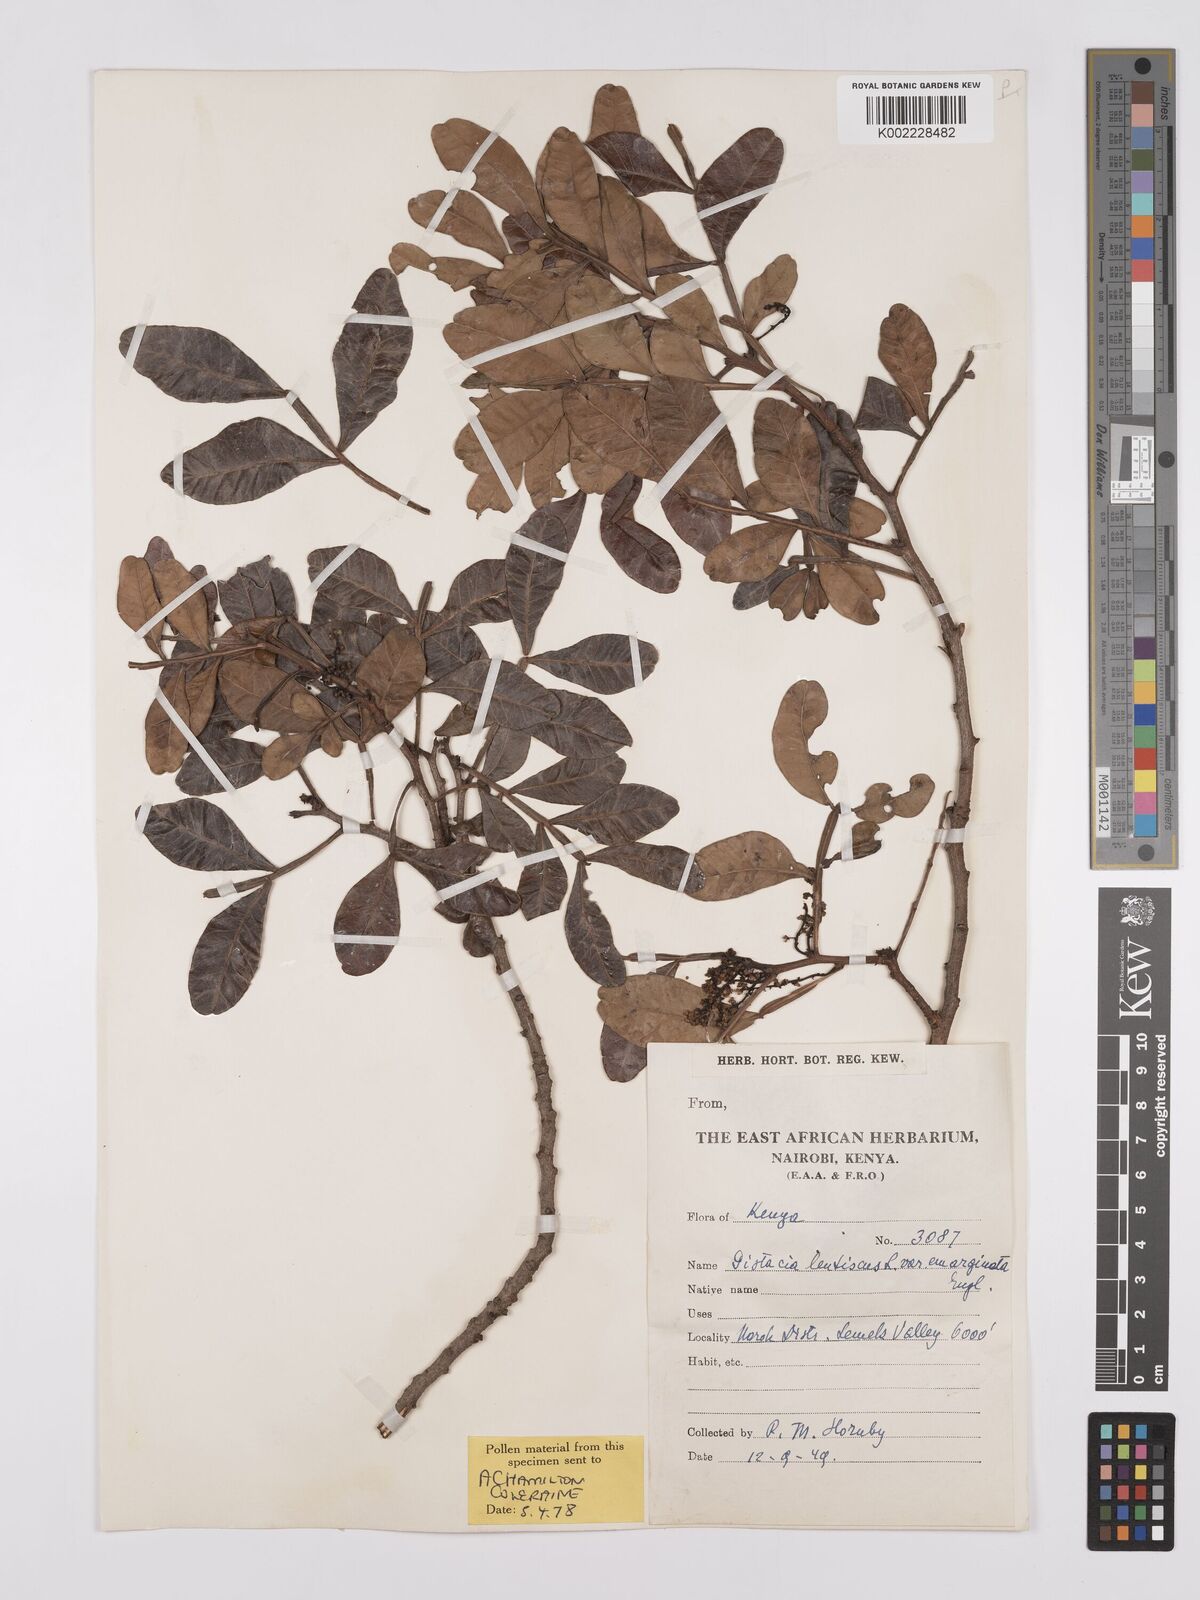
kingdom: Plantae
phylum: Tracheophyta
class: Magnoliopsida
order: Sapindales
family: Anacardiaceae
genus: Pistacia
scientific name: Pistacia lentiscus
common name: Lentisk
